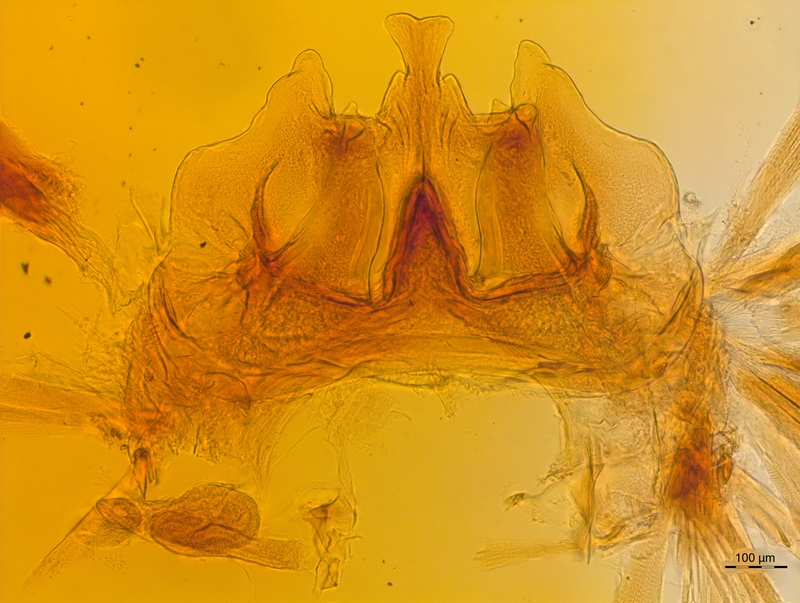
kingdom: Animalia
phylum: Arthropoda
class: Diplopoda
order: Chordeumatida
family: Craspedosomatidae
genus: Craspedosoma
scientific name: Craspedosoma rawlinsii
